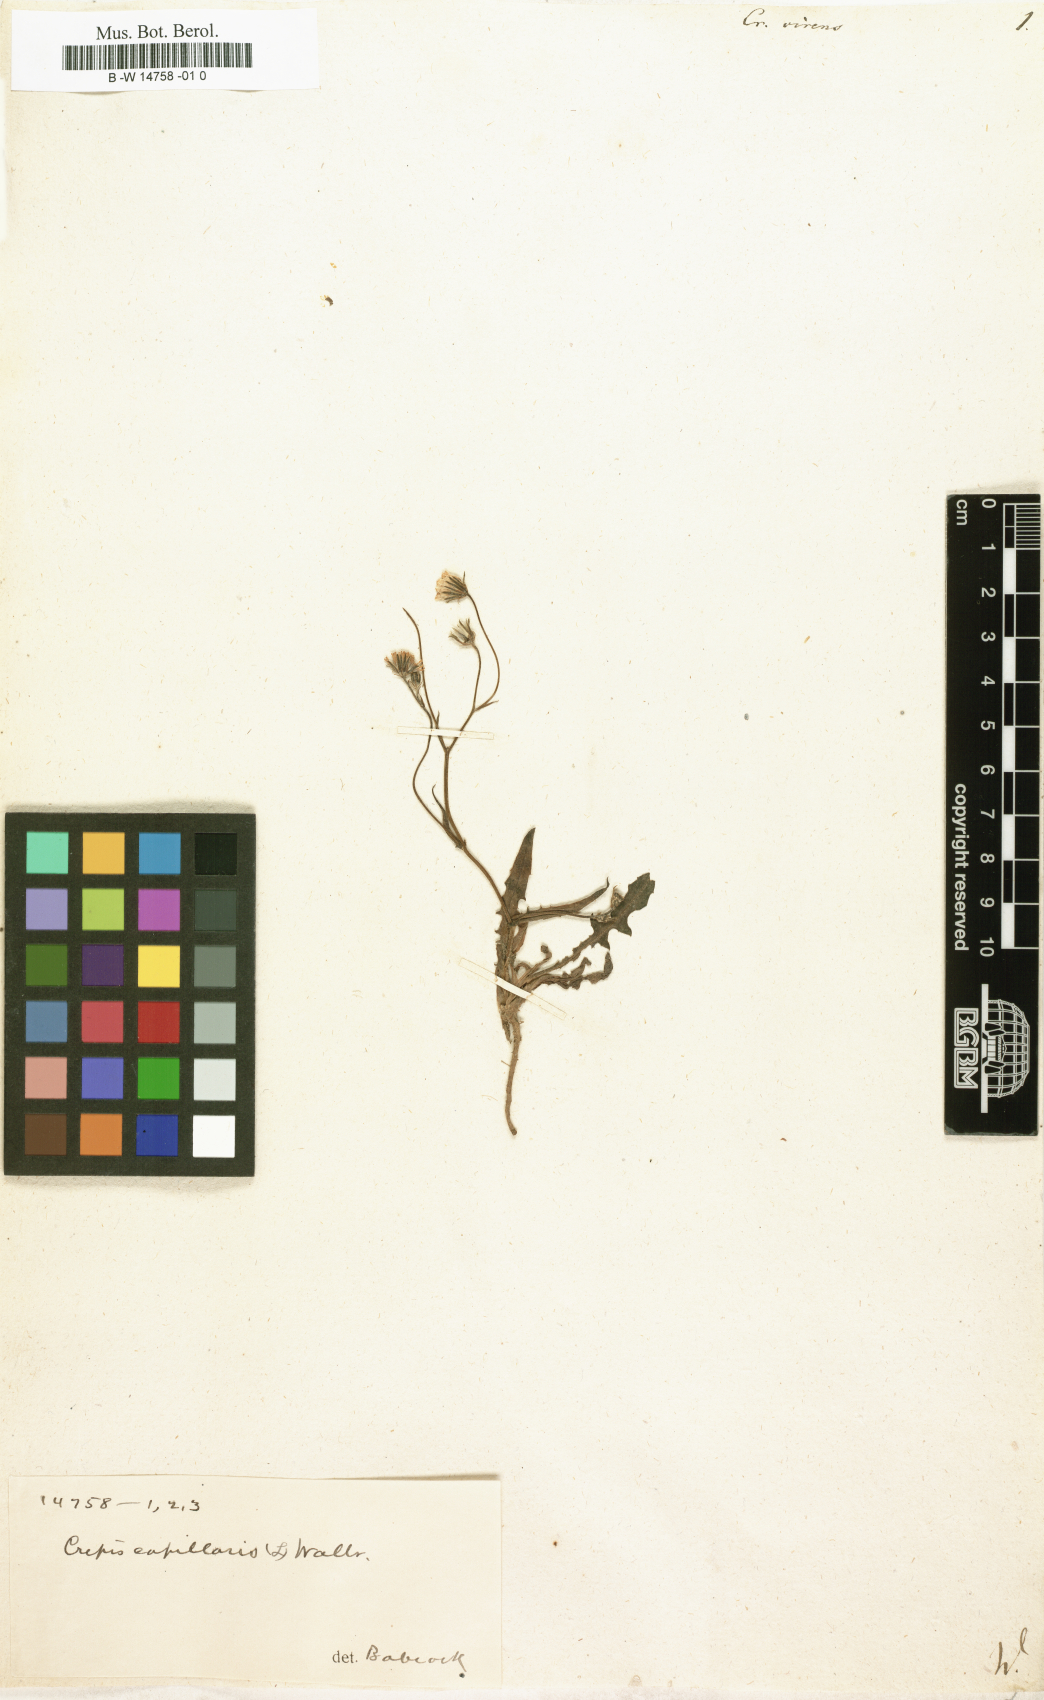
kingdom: Plantae
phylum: Tracheophyta
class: Magnoliopsida
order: Asterales
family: Asteraceae
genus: Crepis
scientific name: Crepis capillaris
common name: Smooth hawksbeard
